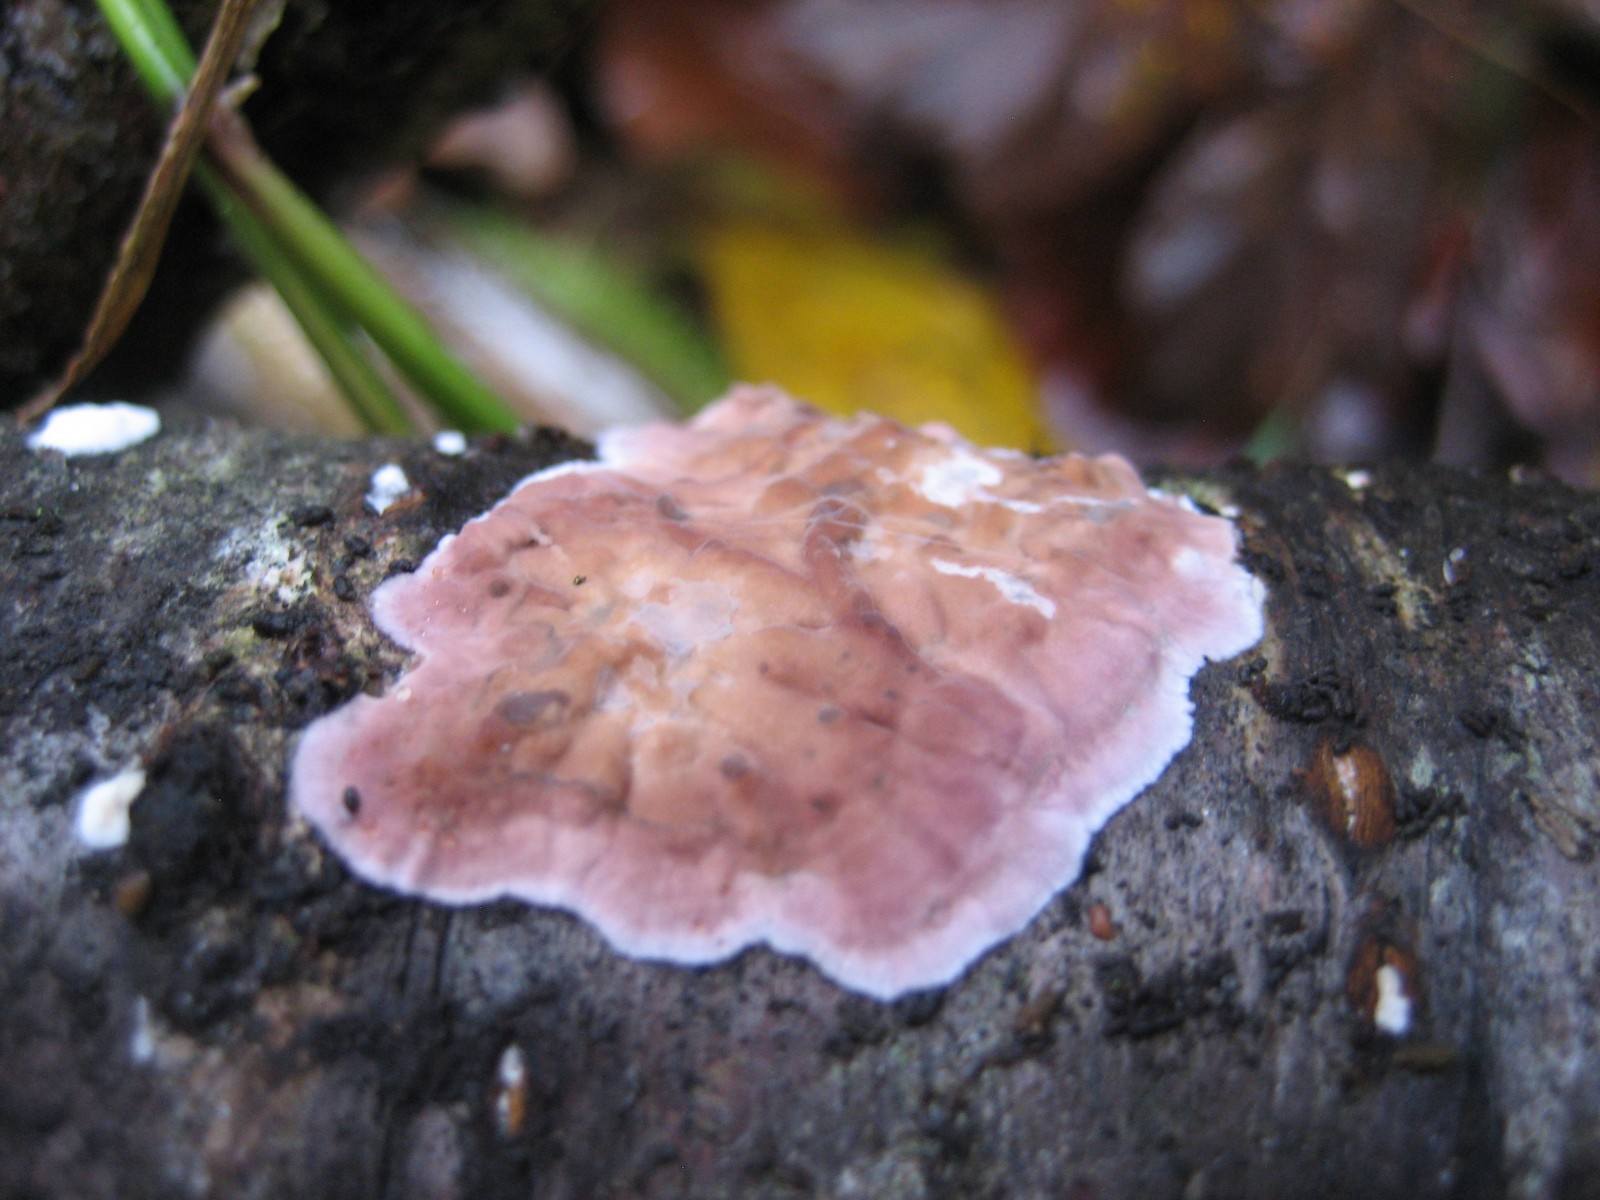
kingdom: Fungi
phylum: Basidiomycota
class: Agaricomycetes
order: Agaricales
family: Cyphellaceae
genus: Chondrostereum
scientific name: Chondrostereum purpureum
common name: purpurlædersvamp
